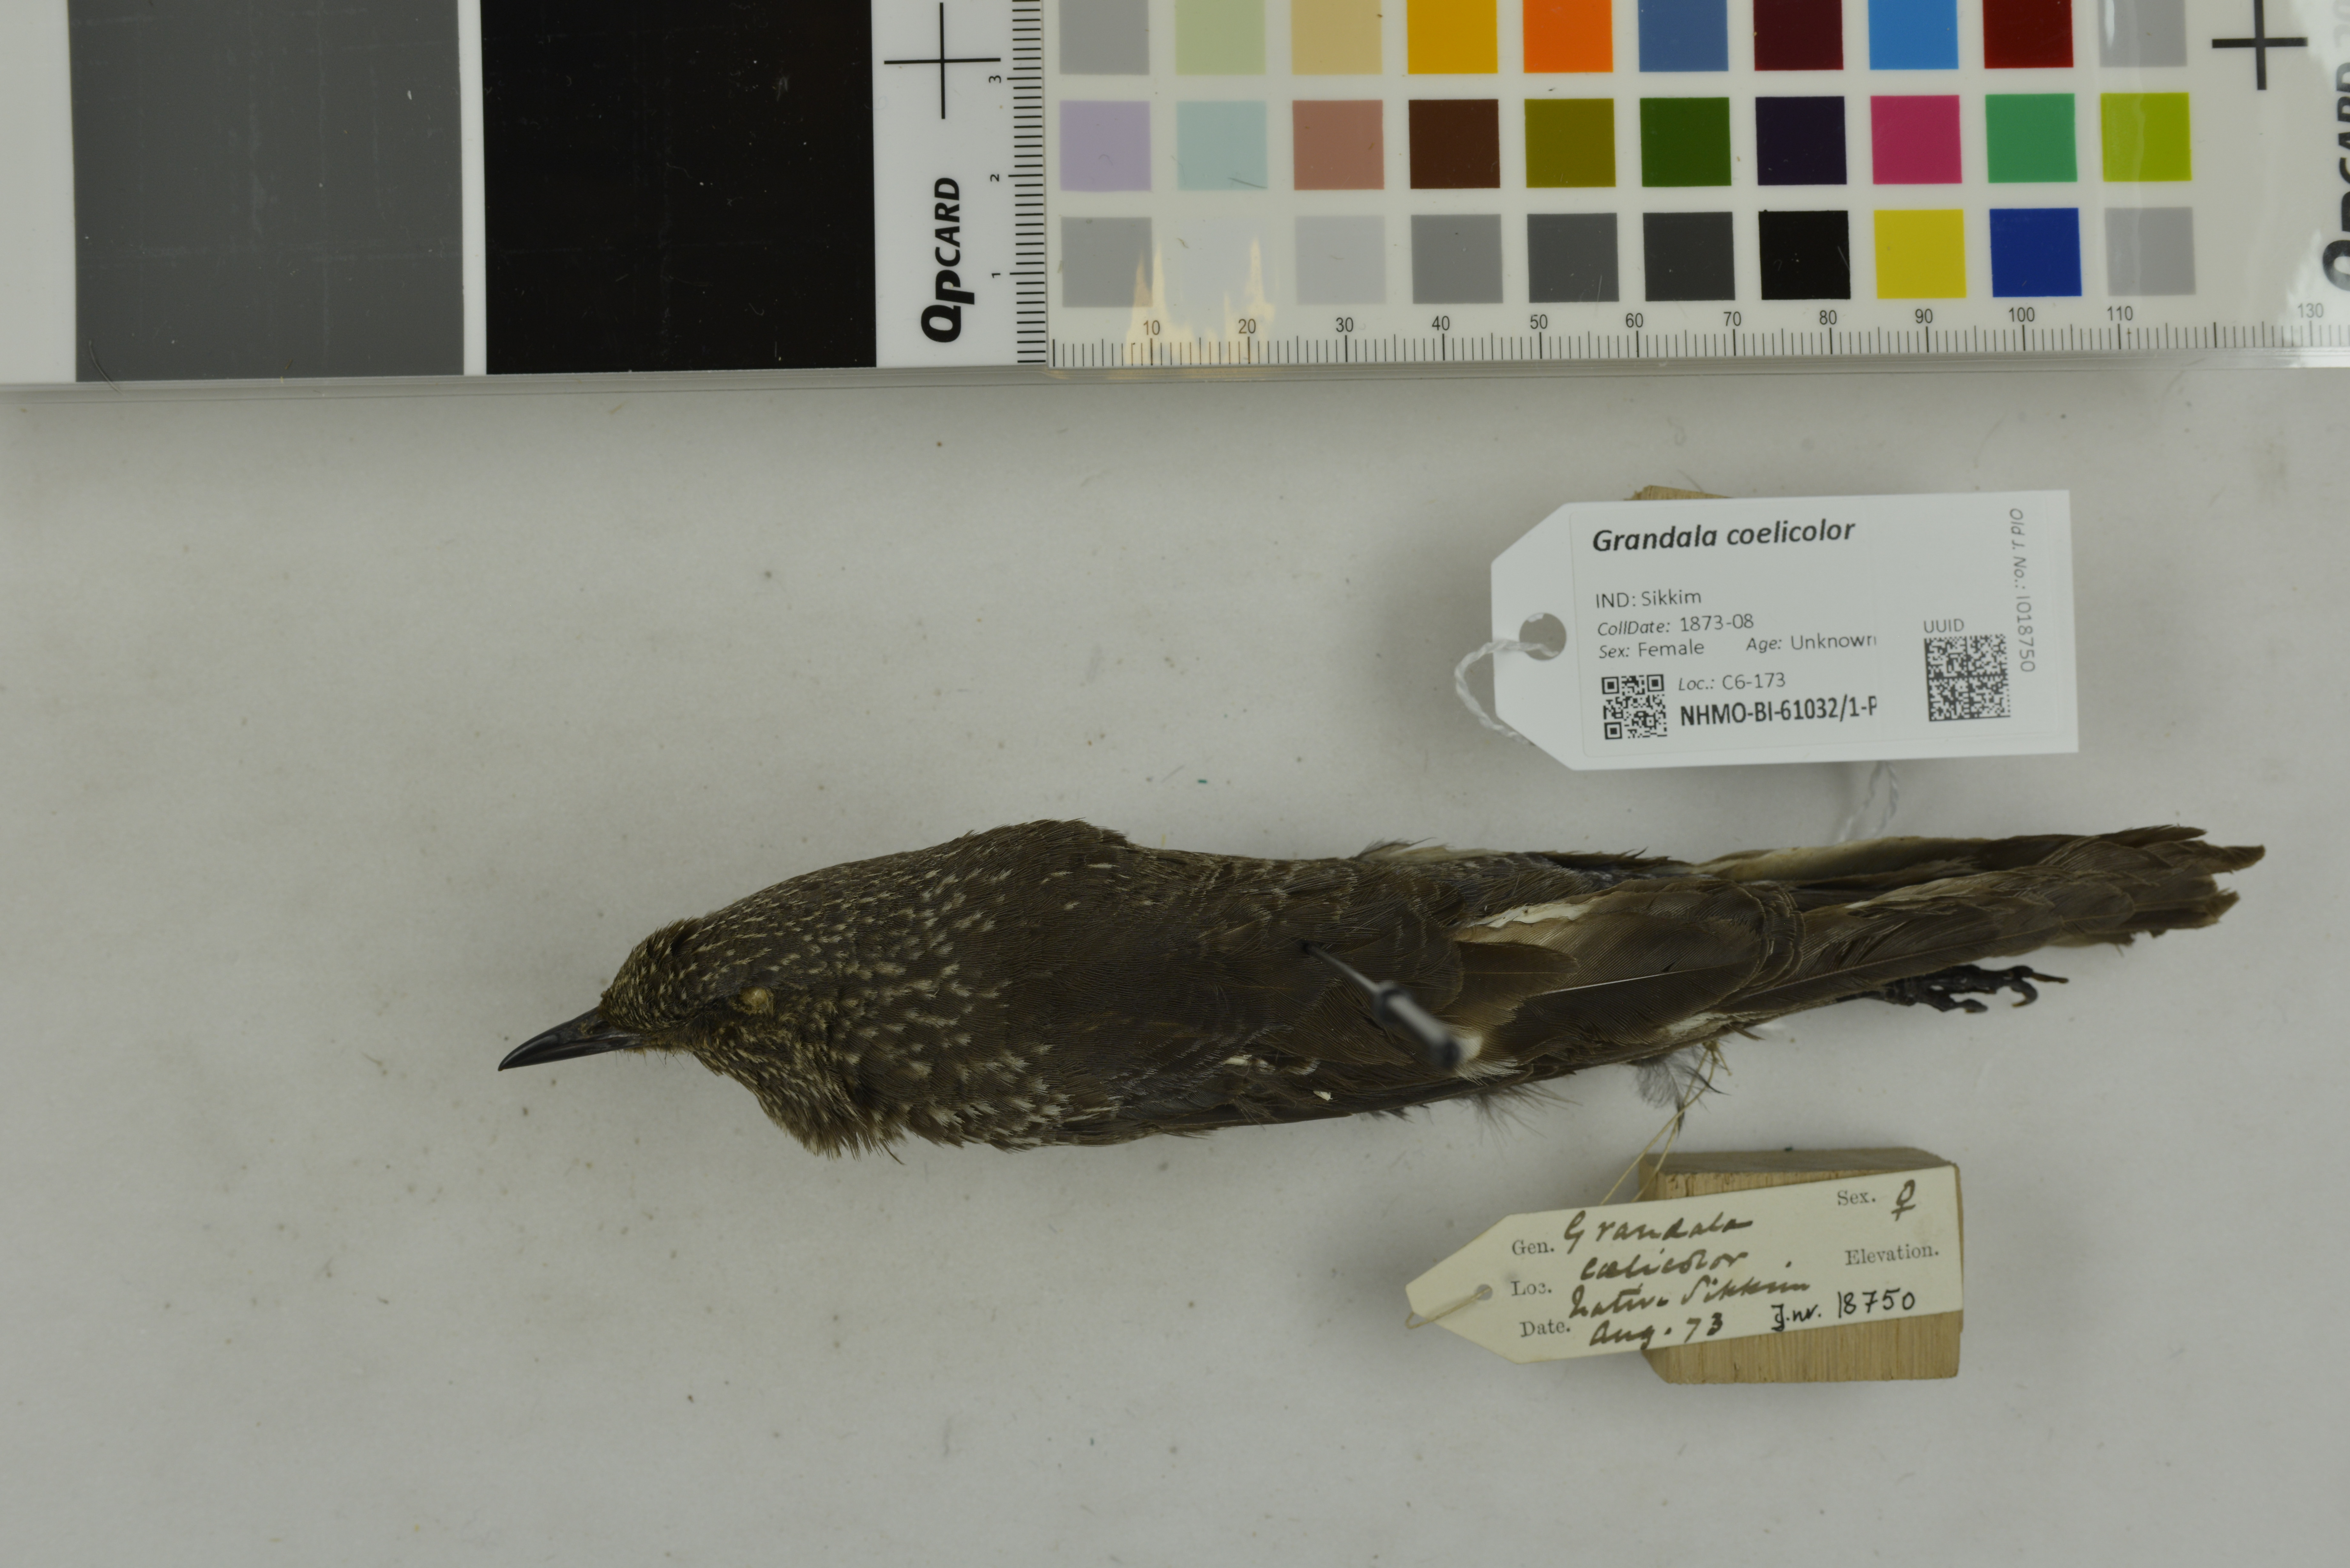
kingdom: Animalia
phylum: Chordata
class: Aves
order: Passeriformes
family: Muscicapidae
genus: Grandala
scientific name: Grandala coelicolor
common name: Grandala
